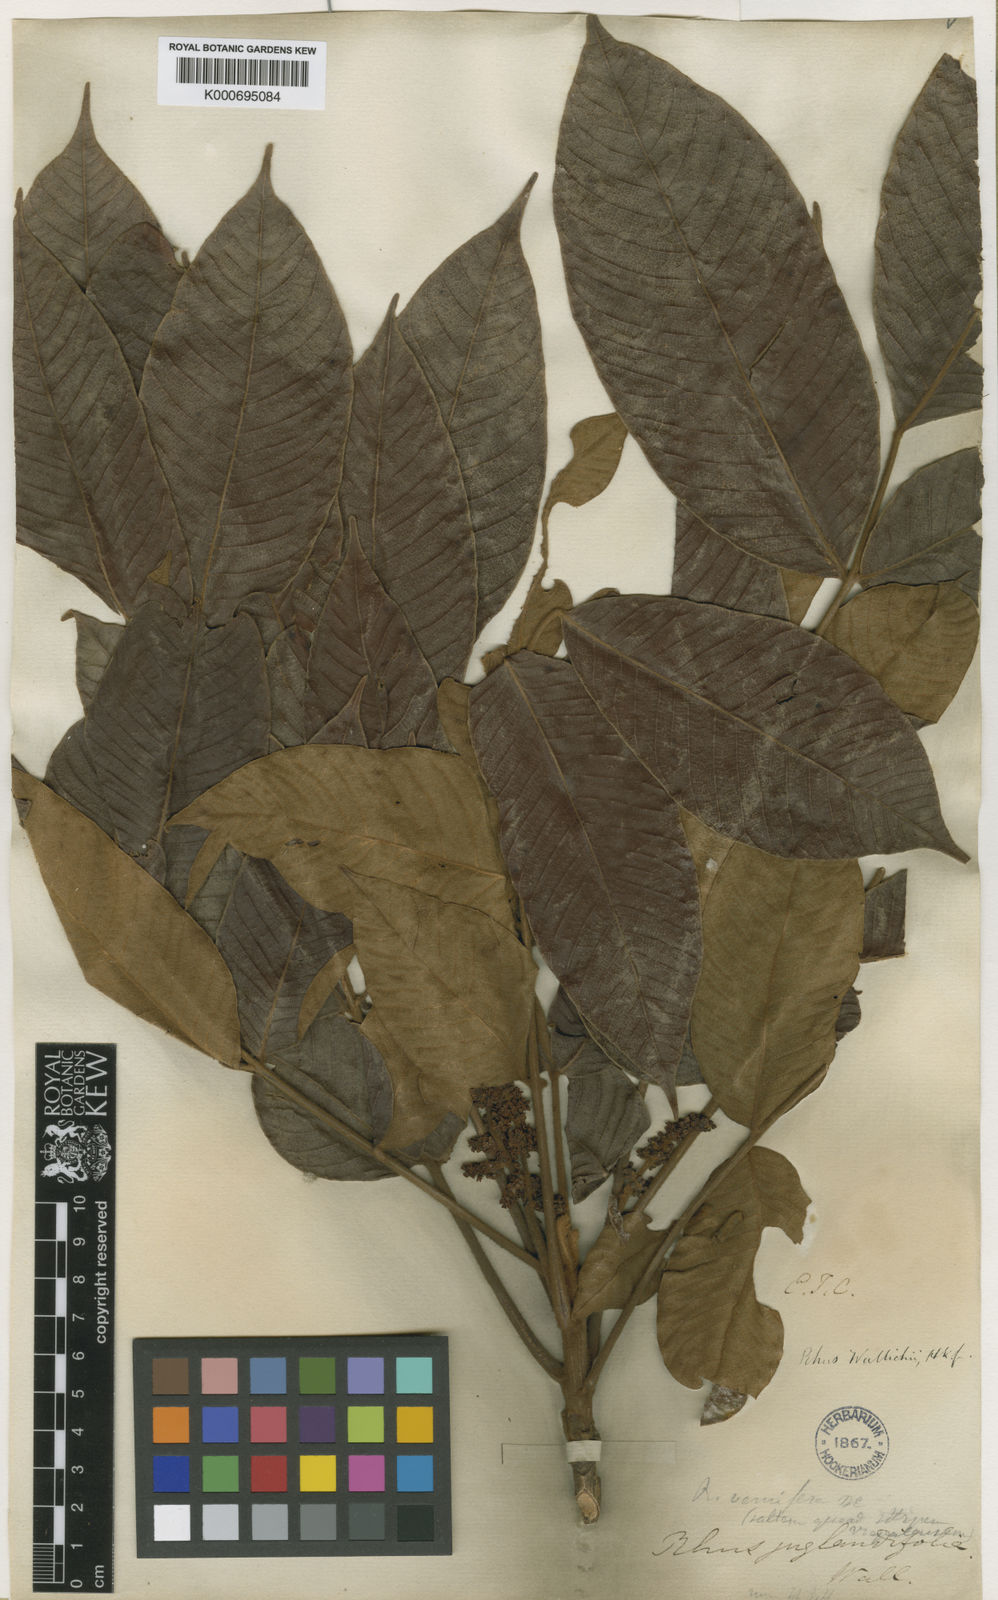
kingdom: Plantae
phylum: Tracheophyta
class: Magnoliopsida
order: Sapindales
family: Anacardiaceae
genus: Toxicodendron
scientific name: Toxicodendron wallichii
